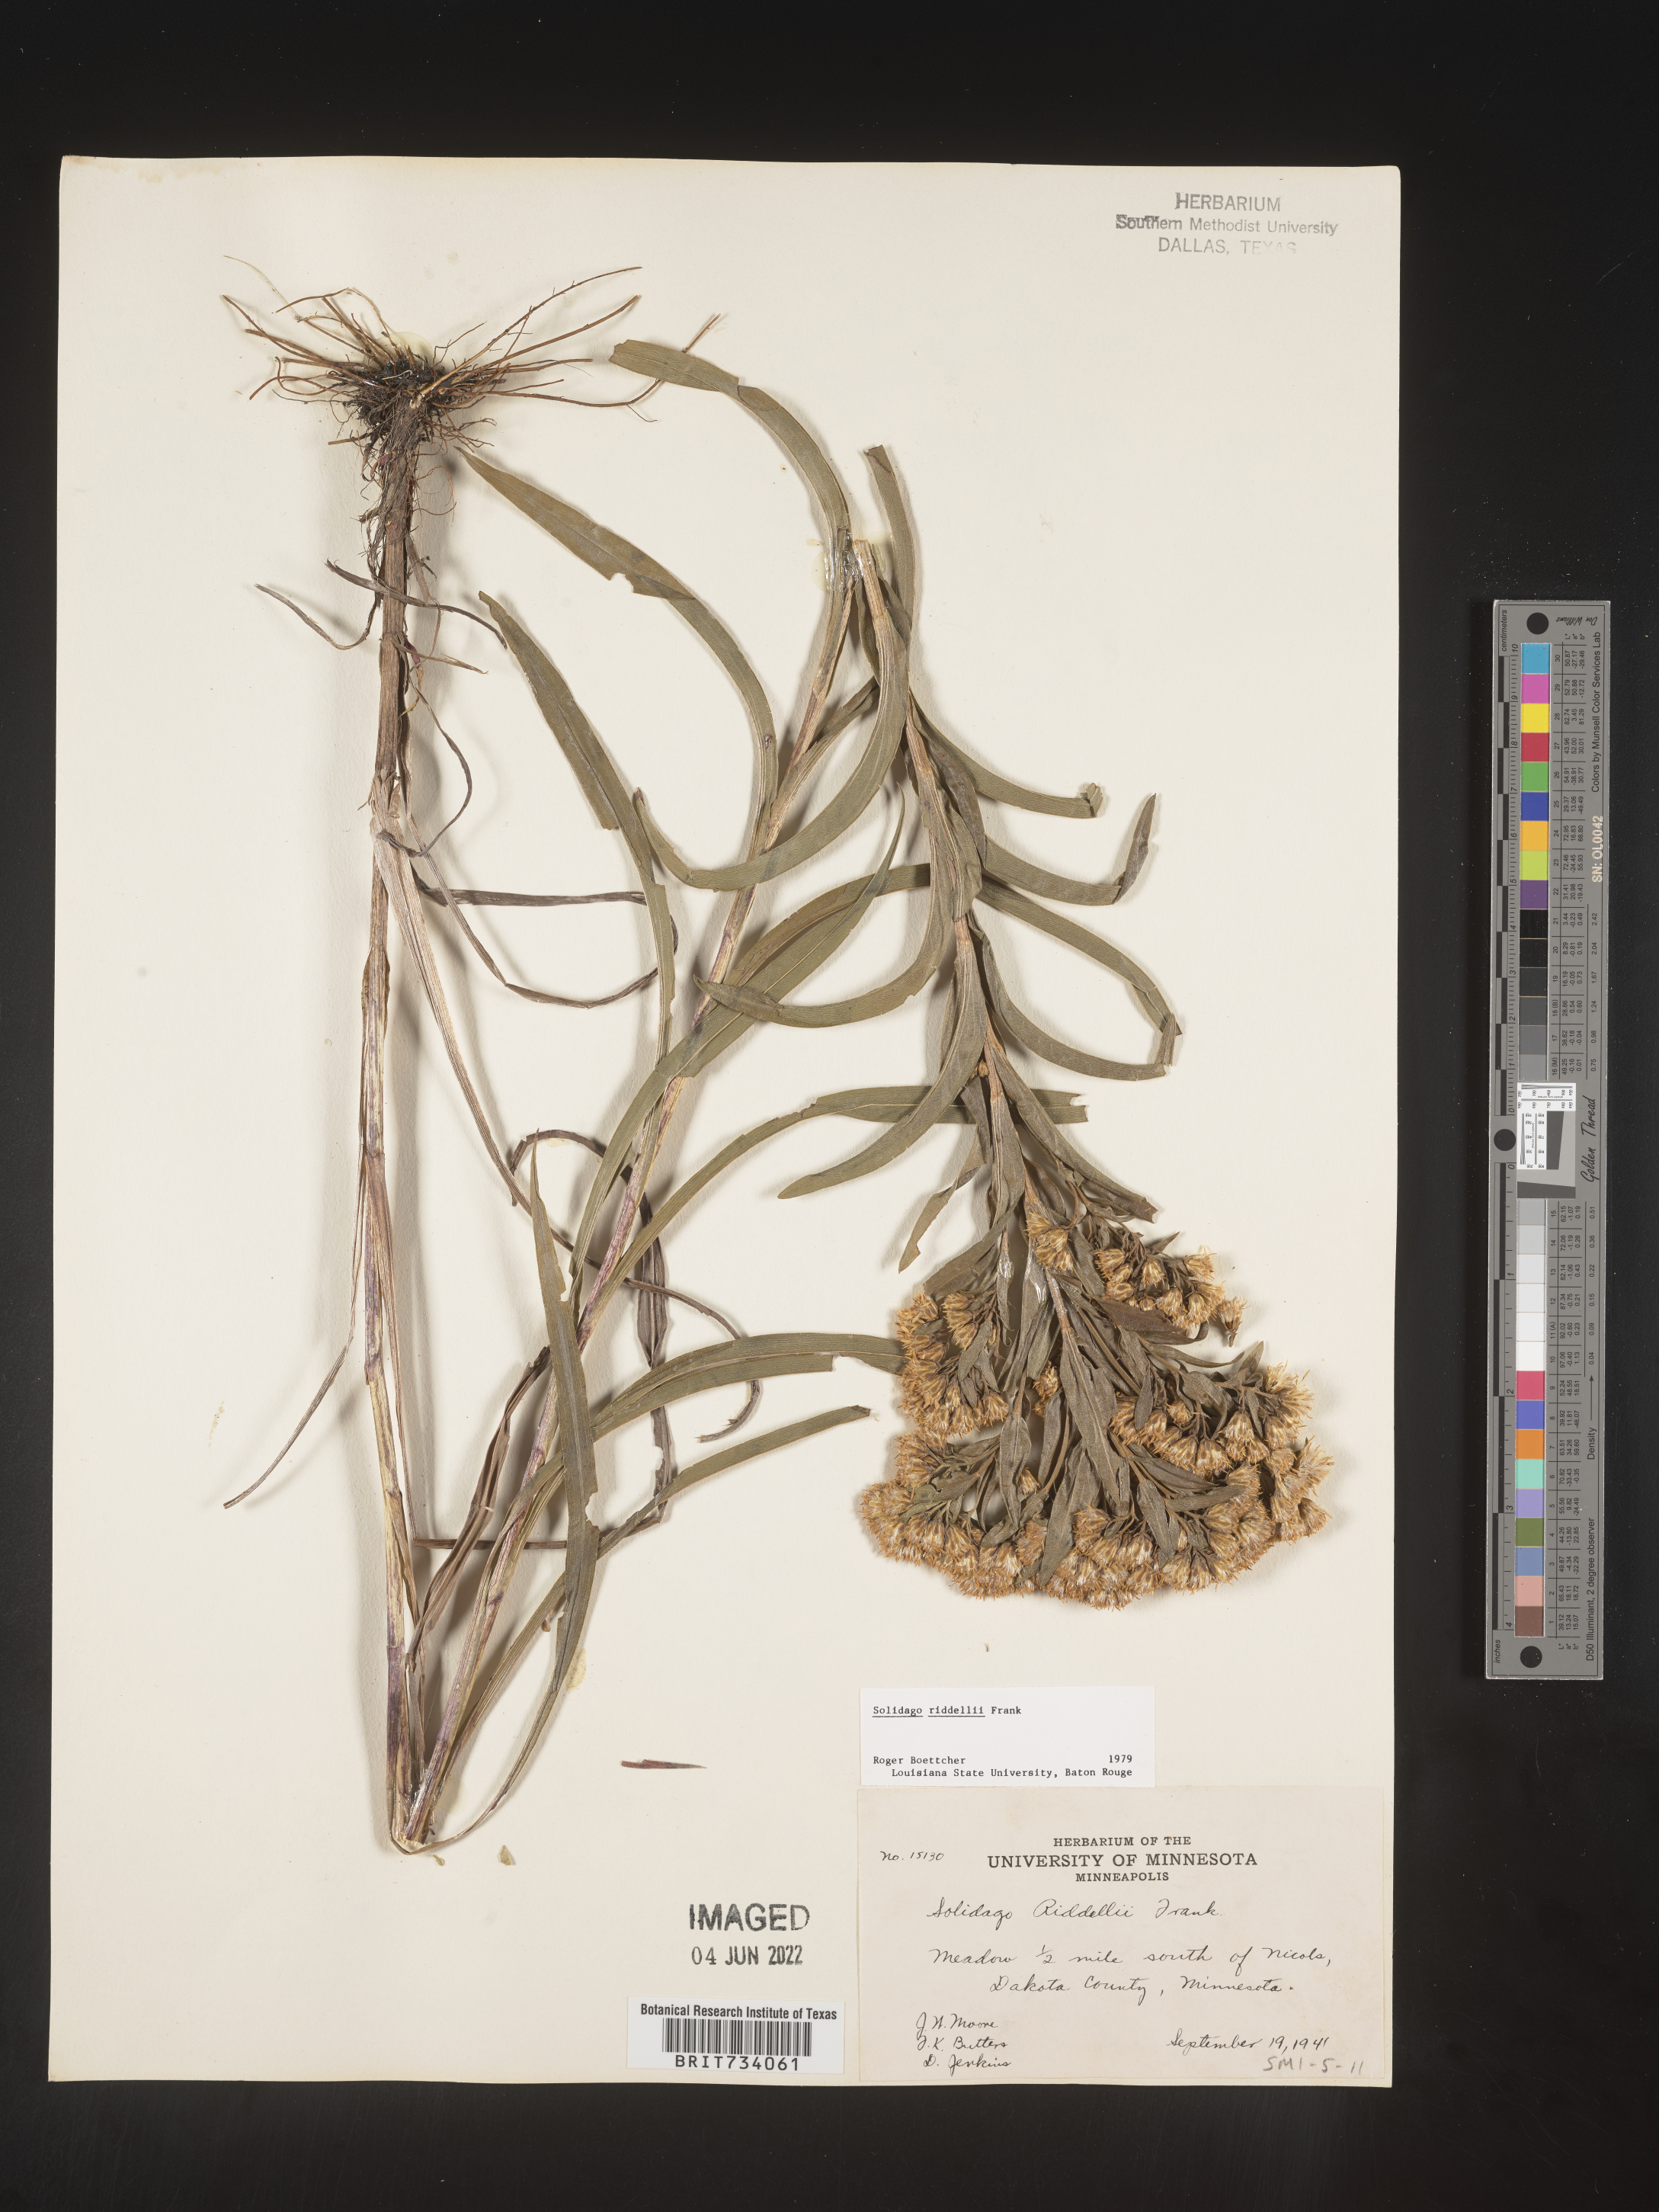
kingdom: Plantae
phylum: Tracheophyta
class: Magnoliopsida
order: Asterales
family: Asteraceae
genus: Solidago
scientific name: Solidago riddellii
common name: Riddell's goldenrod
